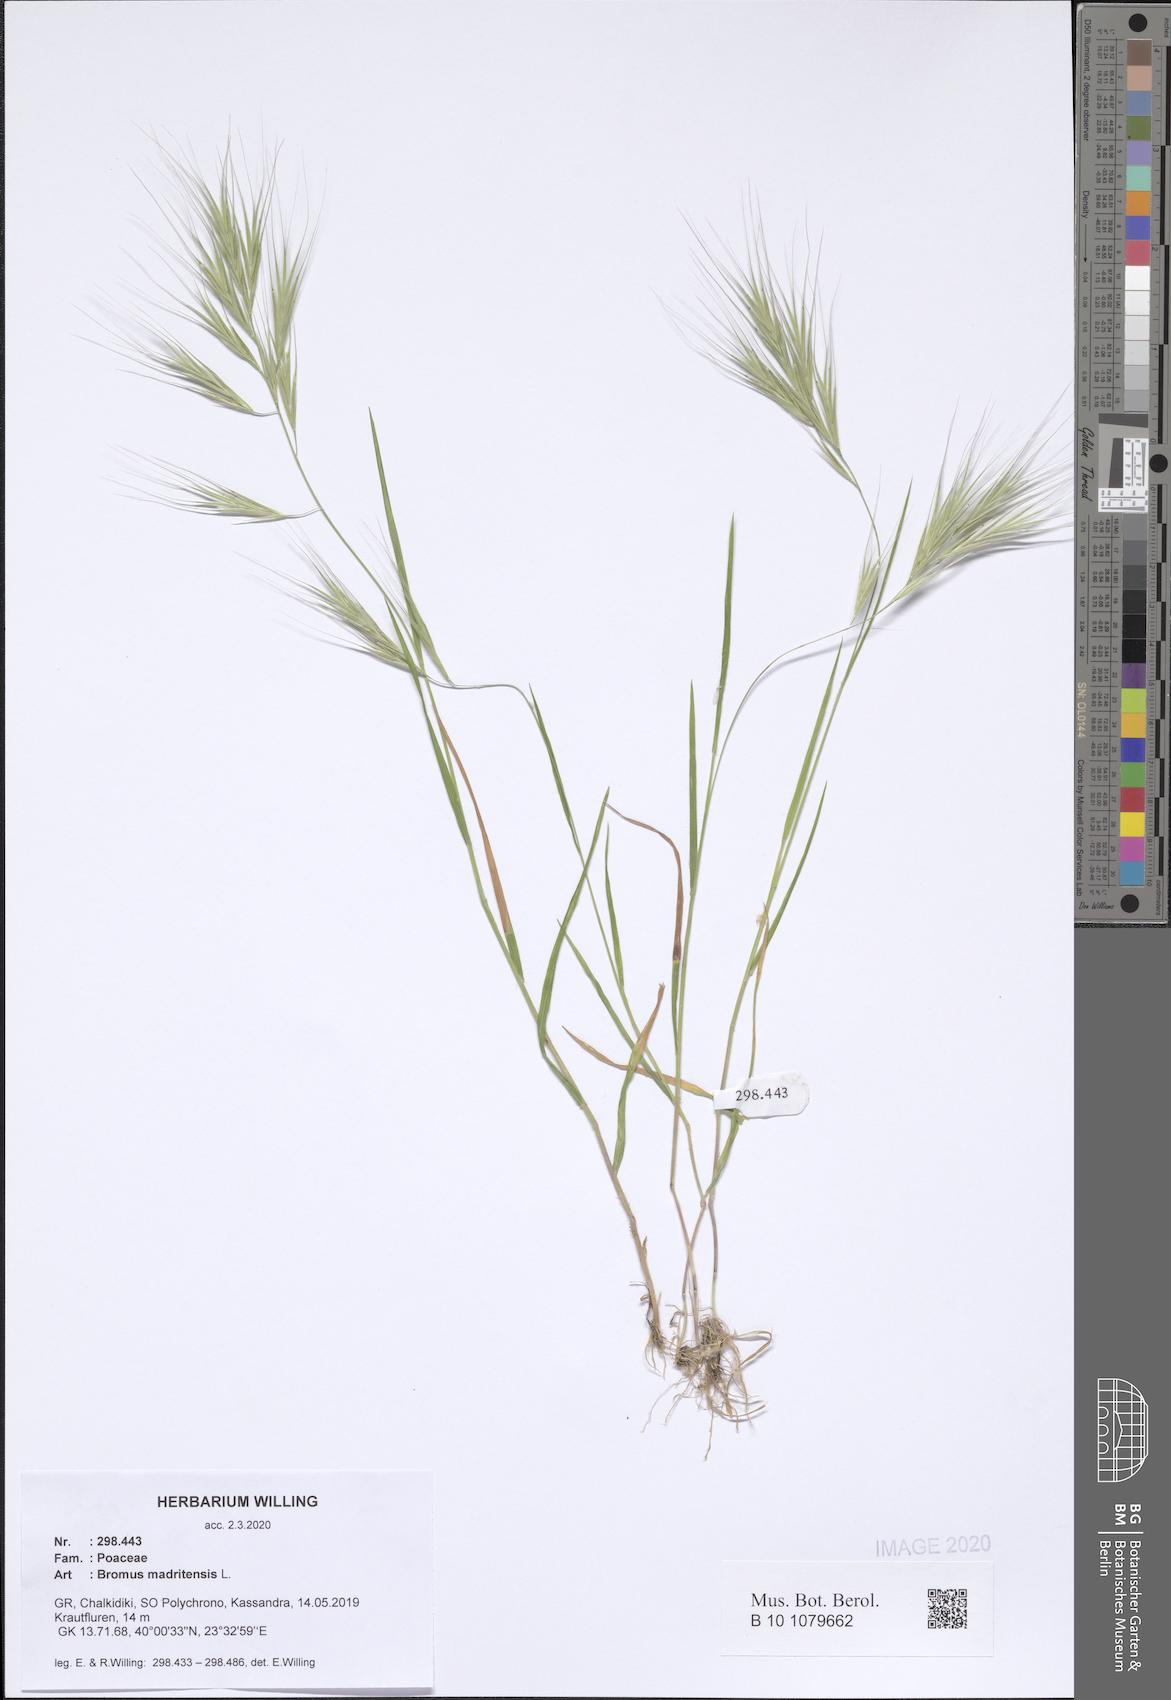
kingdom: Plantae
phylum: Tracheophyta
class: Liliopsida
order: Poales
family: Poaceae
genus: Bromus
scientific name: Bromus madritensis
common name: Compact brome
